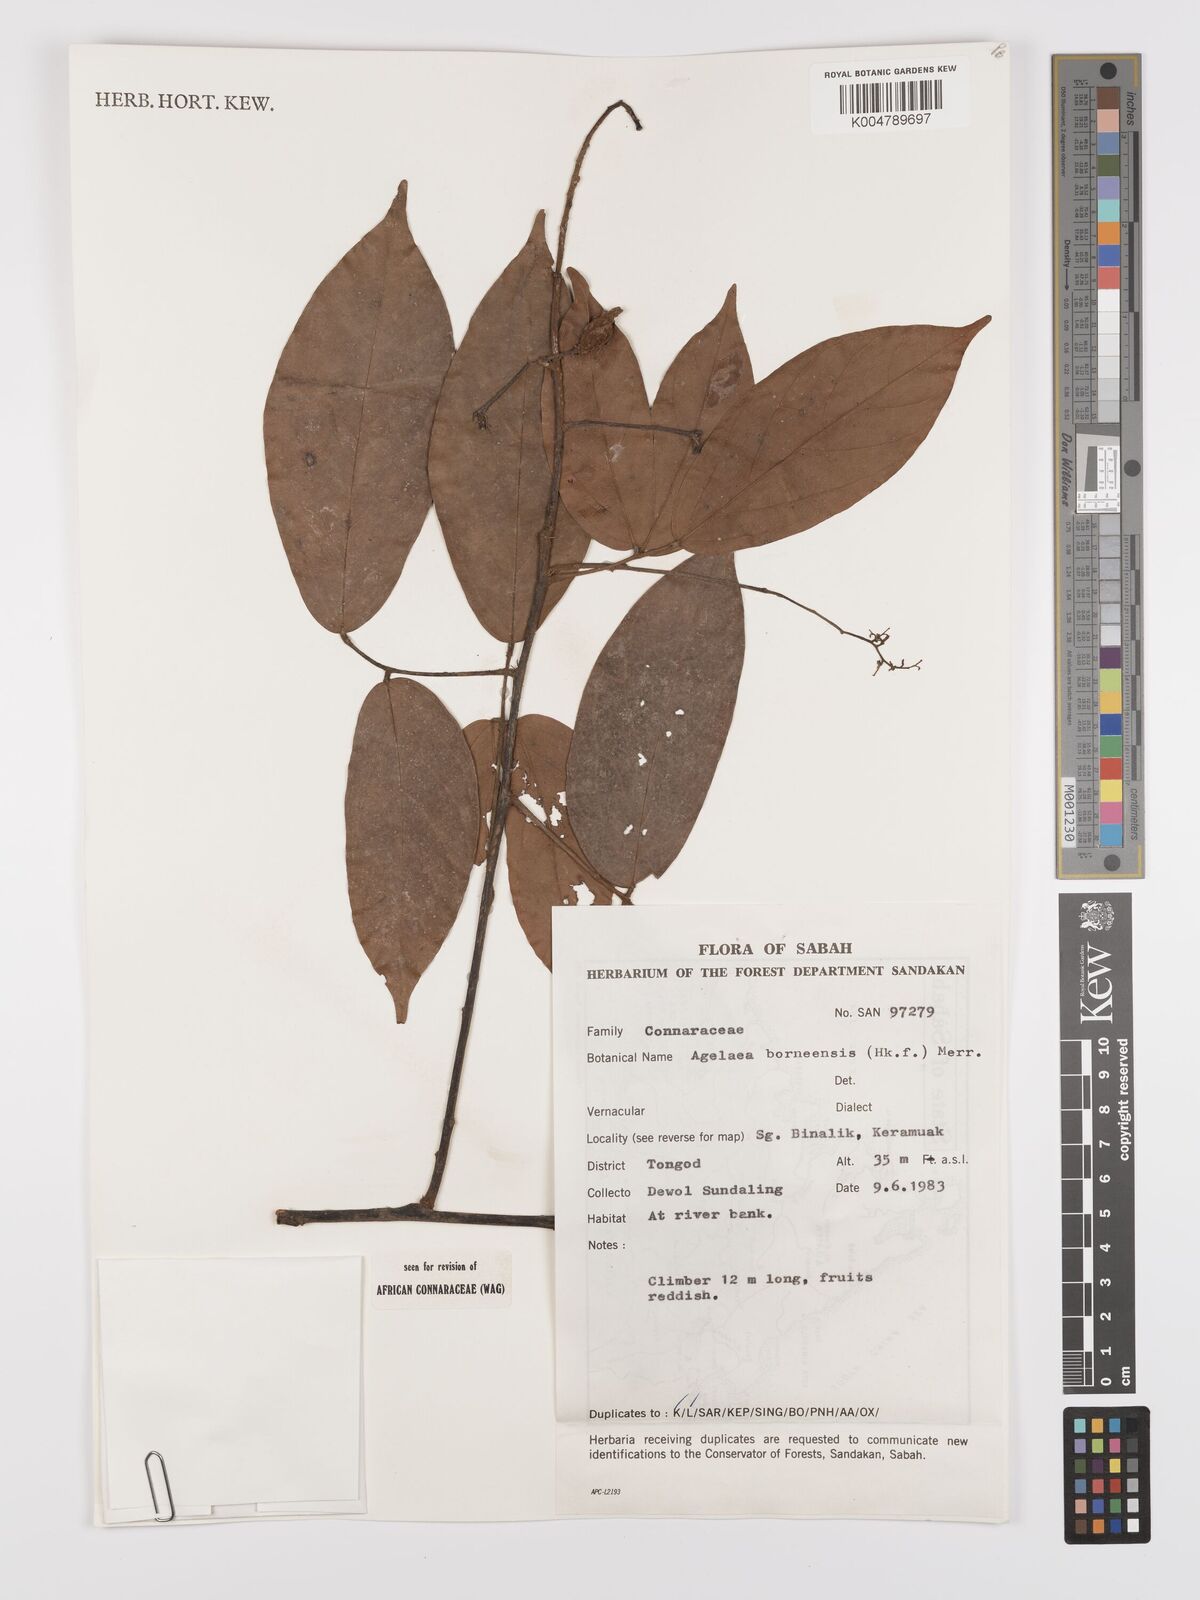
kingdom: Plantae
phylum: Tracheophyta
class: Magnoliopsida
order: Oxalidales
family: Connaraceae
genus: Agelaea
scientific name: Agelaea borneensis
